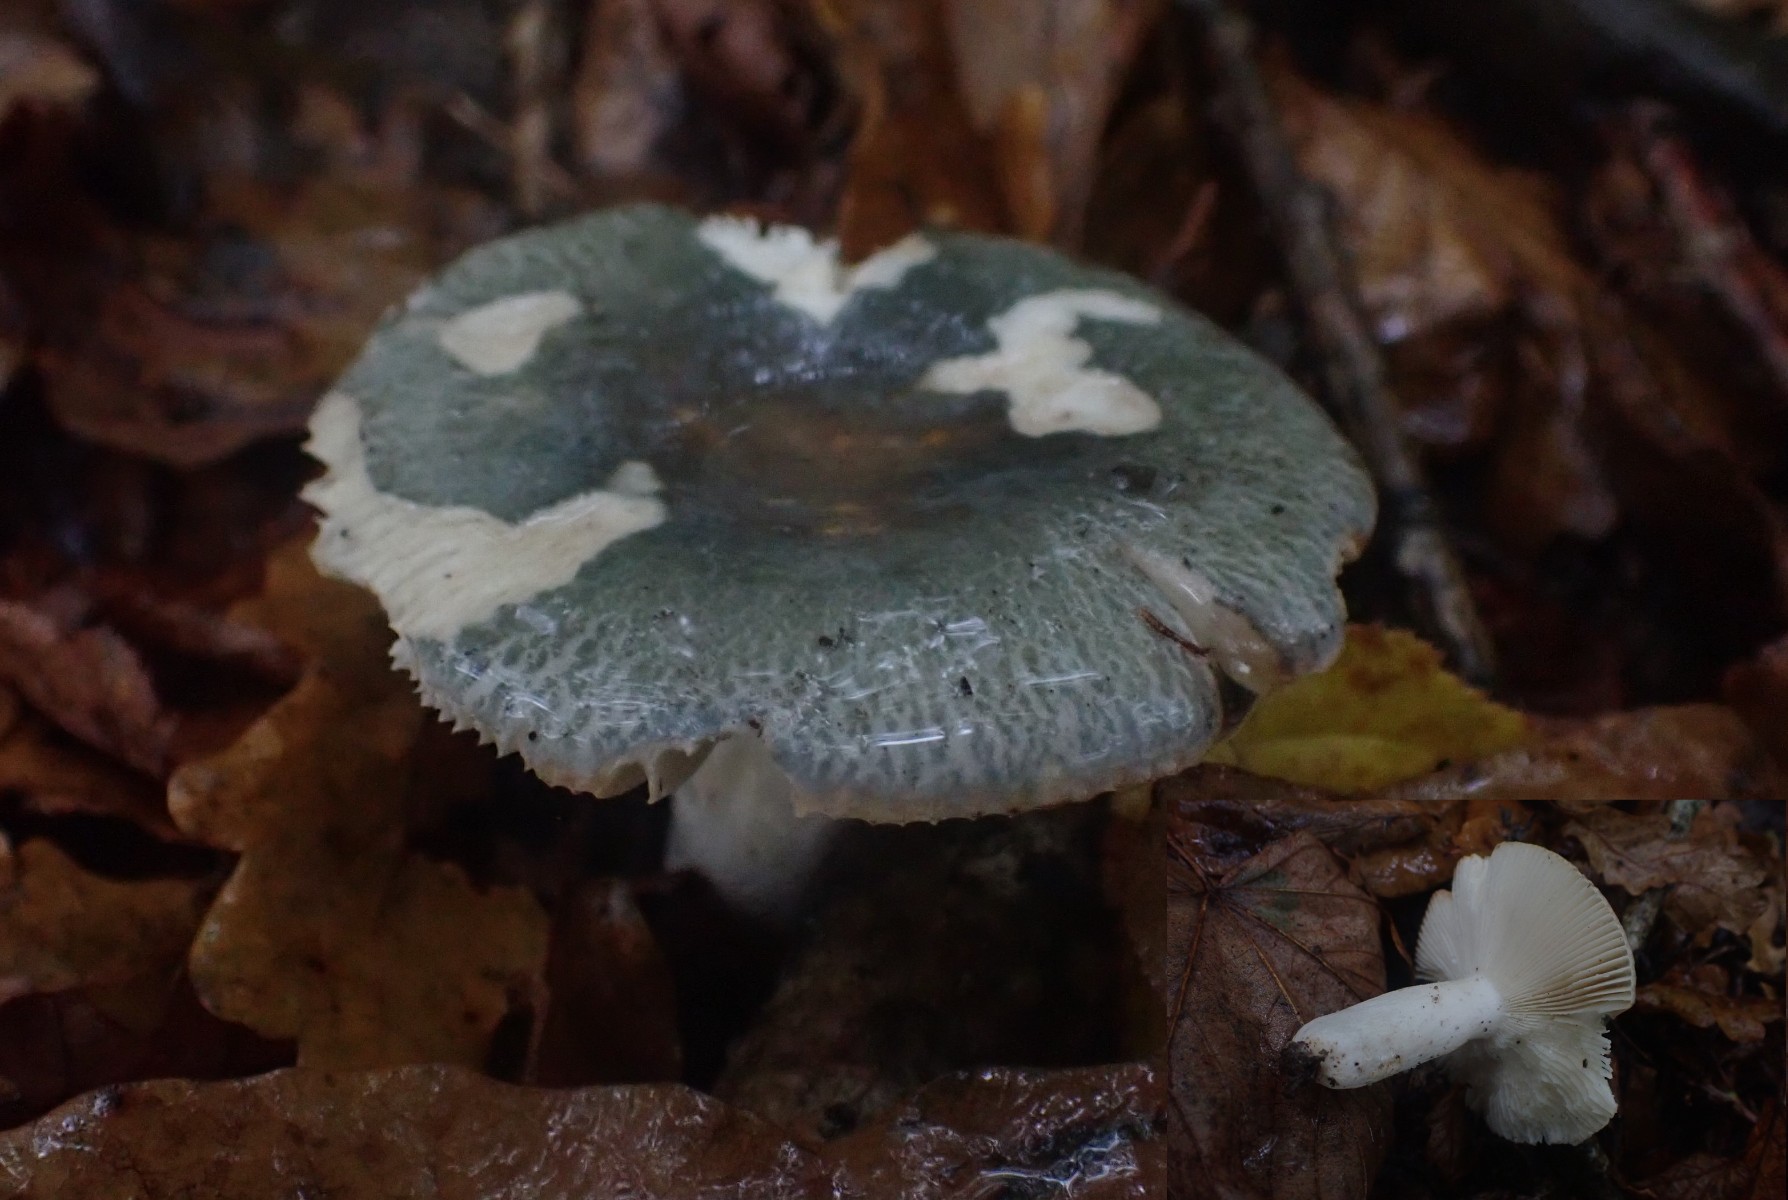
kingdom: Fungi
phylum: Basidiomycota
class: Agaricomycetes
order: Russulales
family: Russulaceae
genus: Russula
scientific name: Russula
